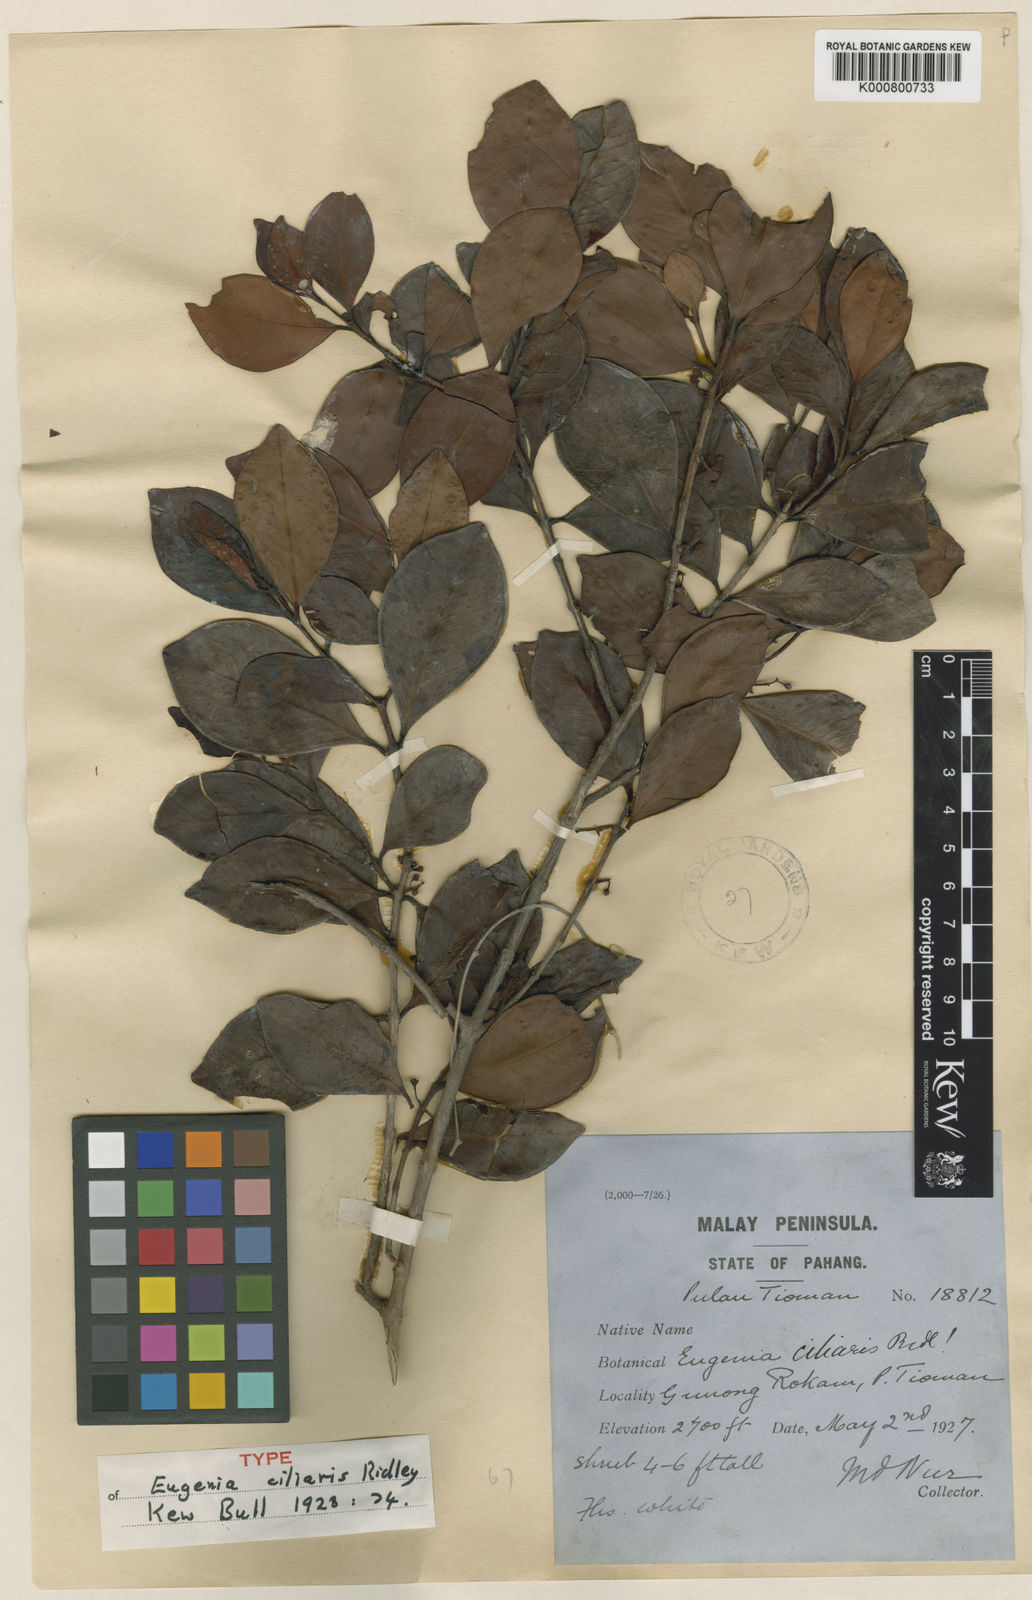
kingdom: Plantae
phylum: Tracheophyta
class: Magnoliopsida
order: Myrtales
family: Myrtaceae
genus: Decaspermum
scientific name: Decaspermum montanum
